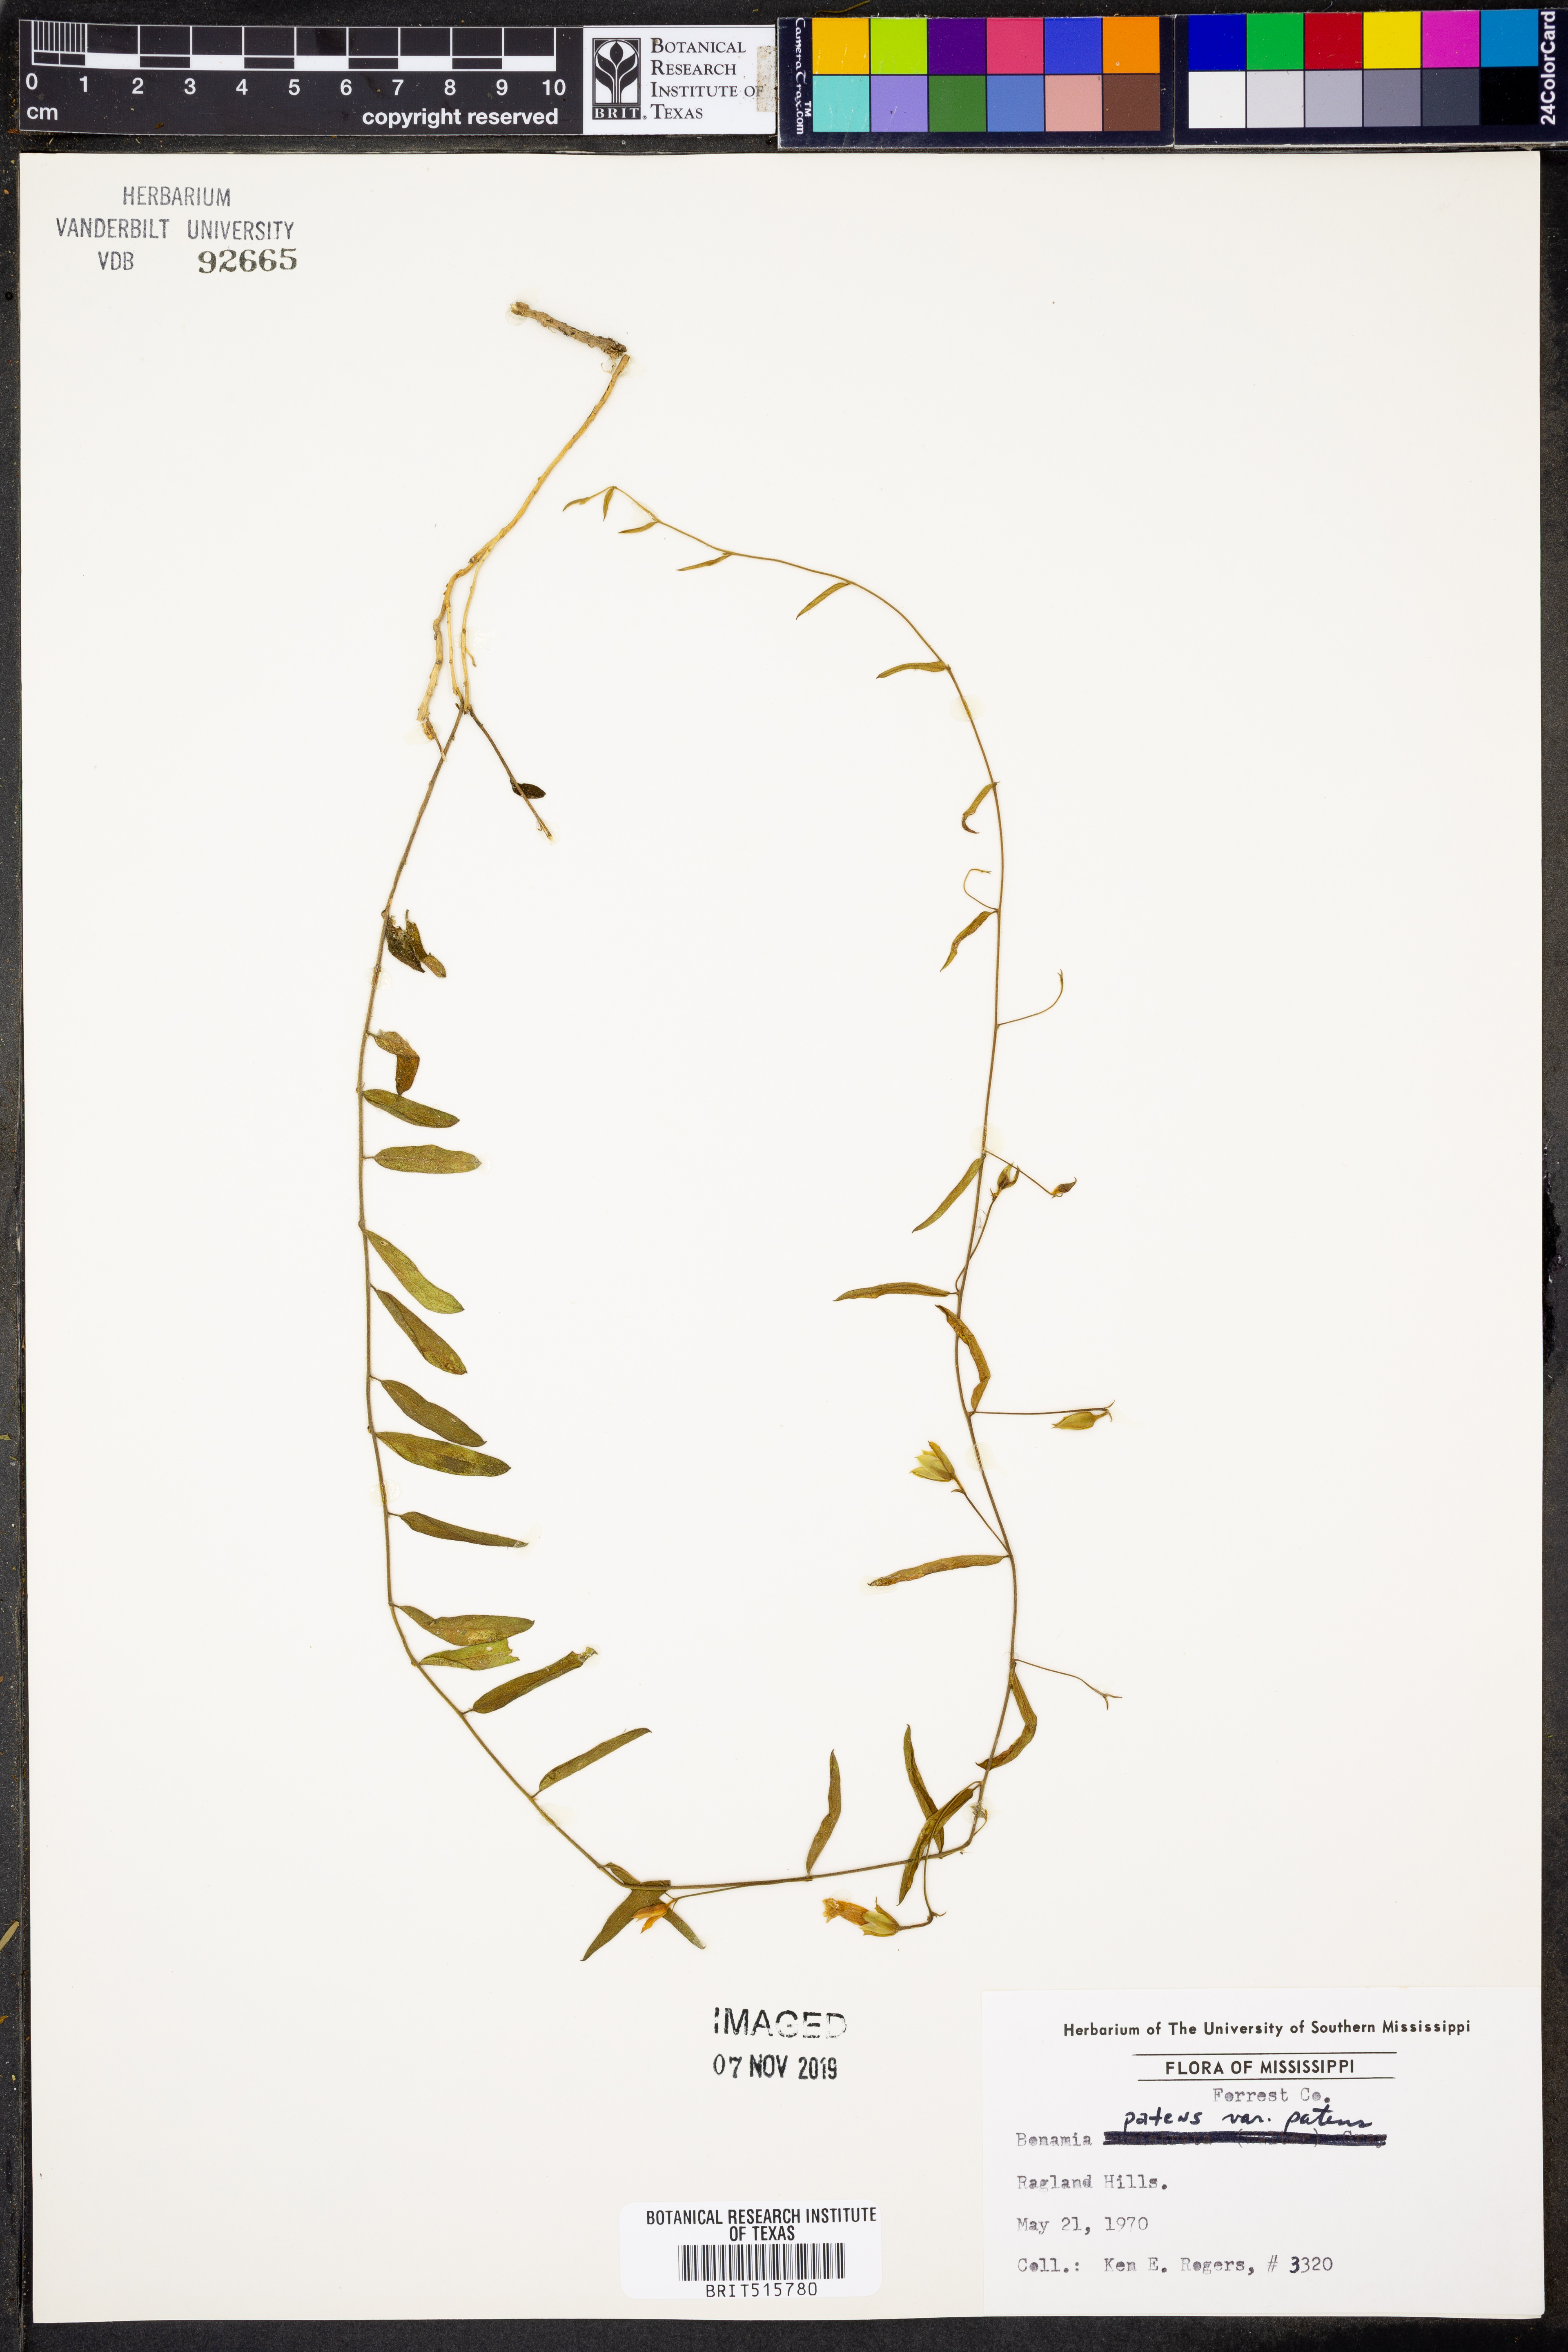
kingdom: Plantae
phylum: Tracheophyta
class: Magnoliopsida
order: Solanales
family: Convolvulaceae
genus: Stylisma
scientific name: Stylisma patens
